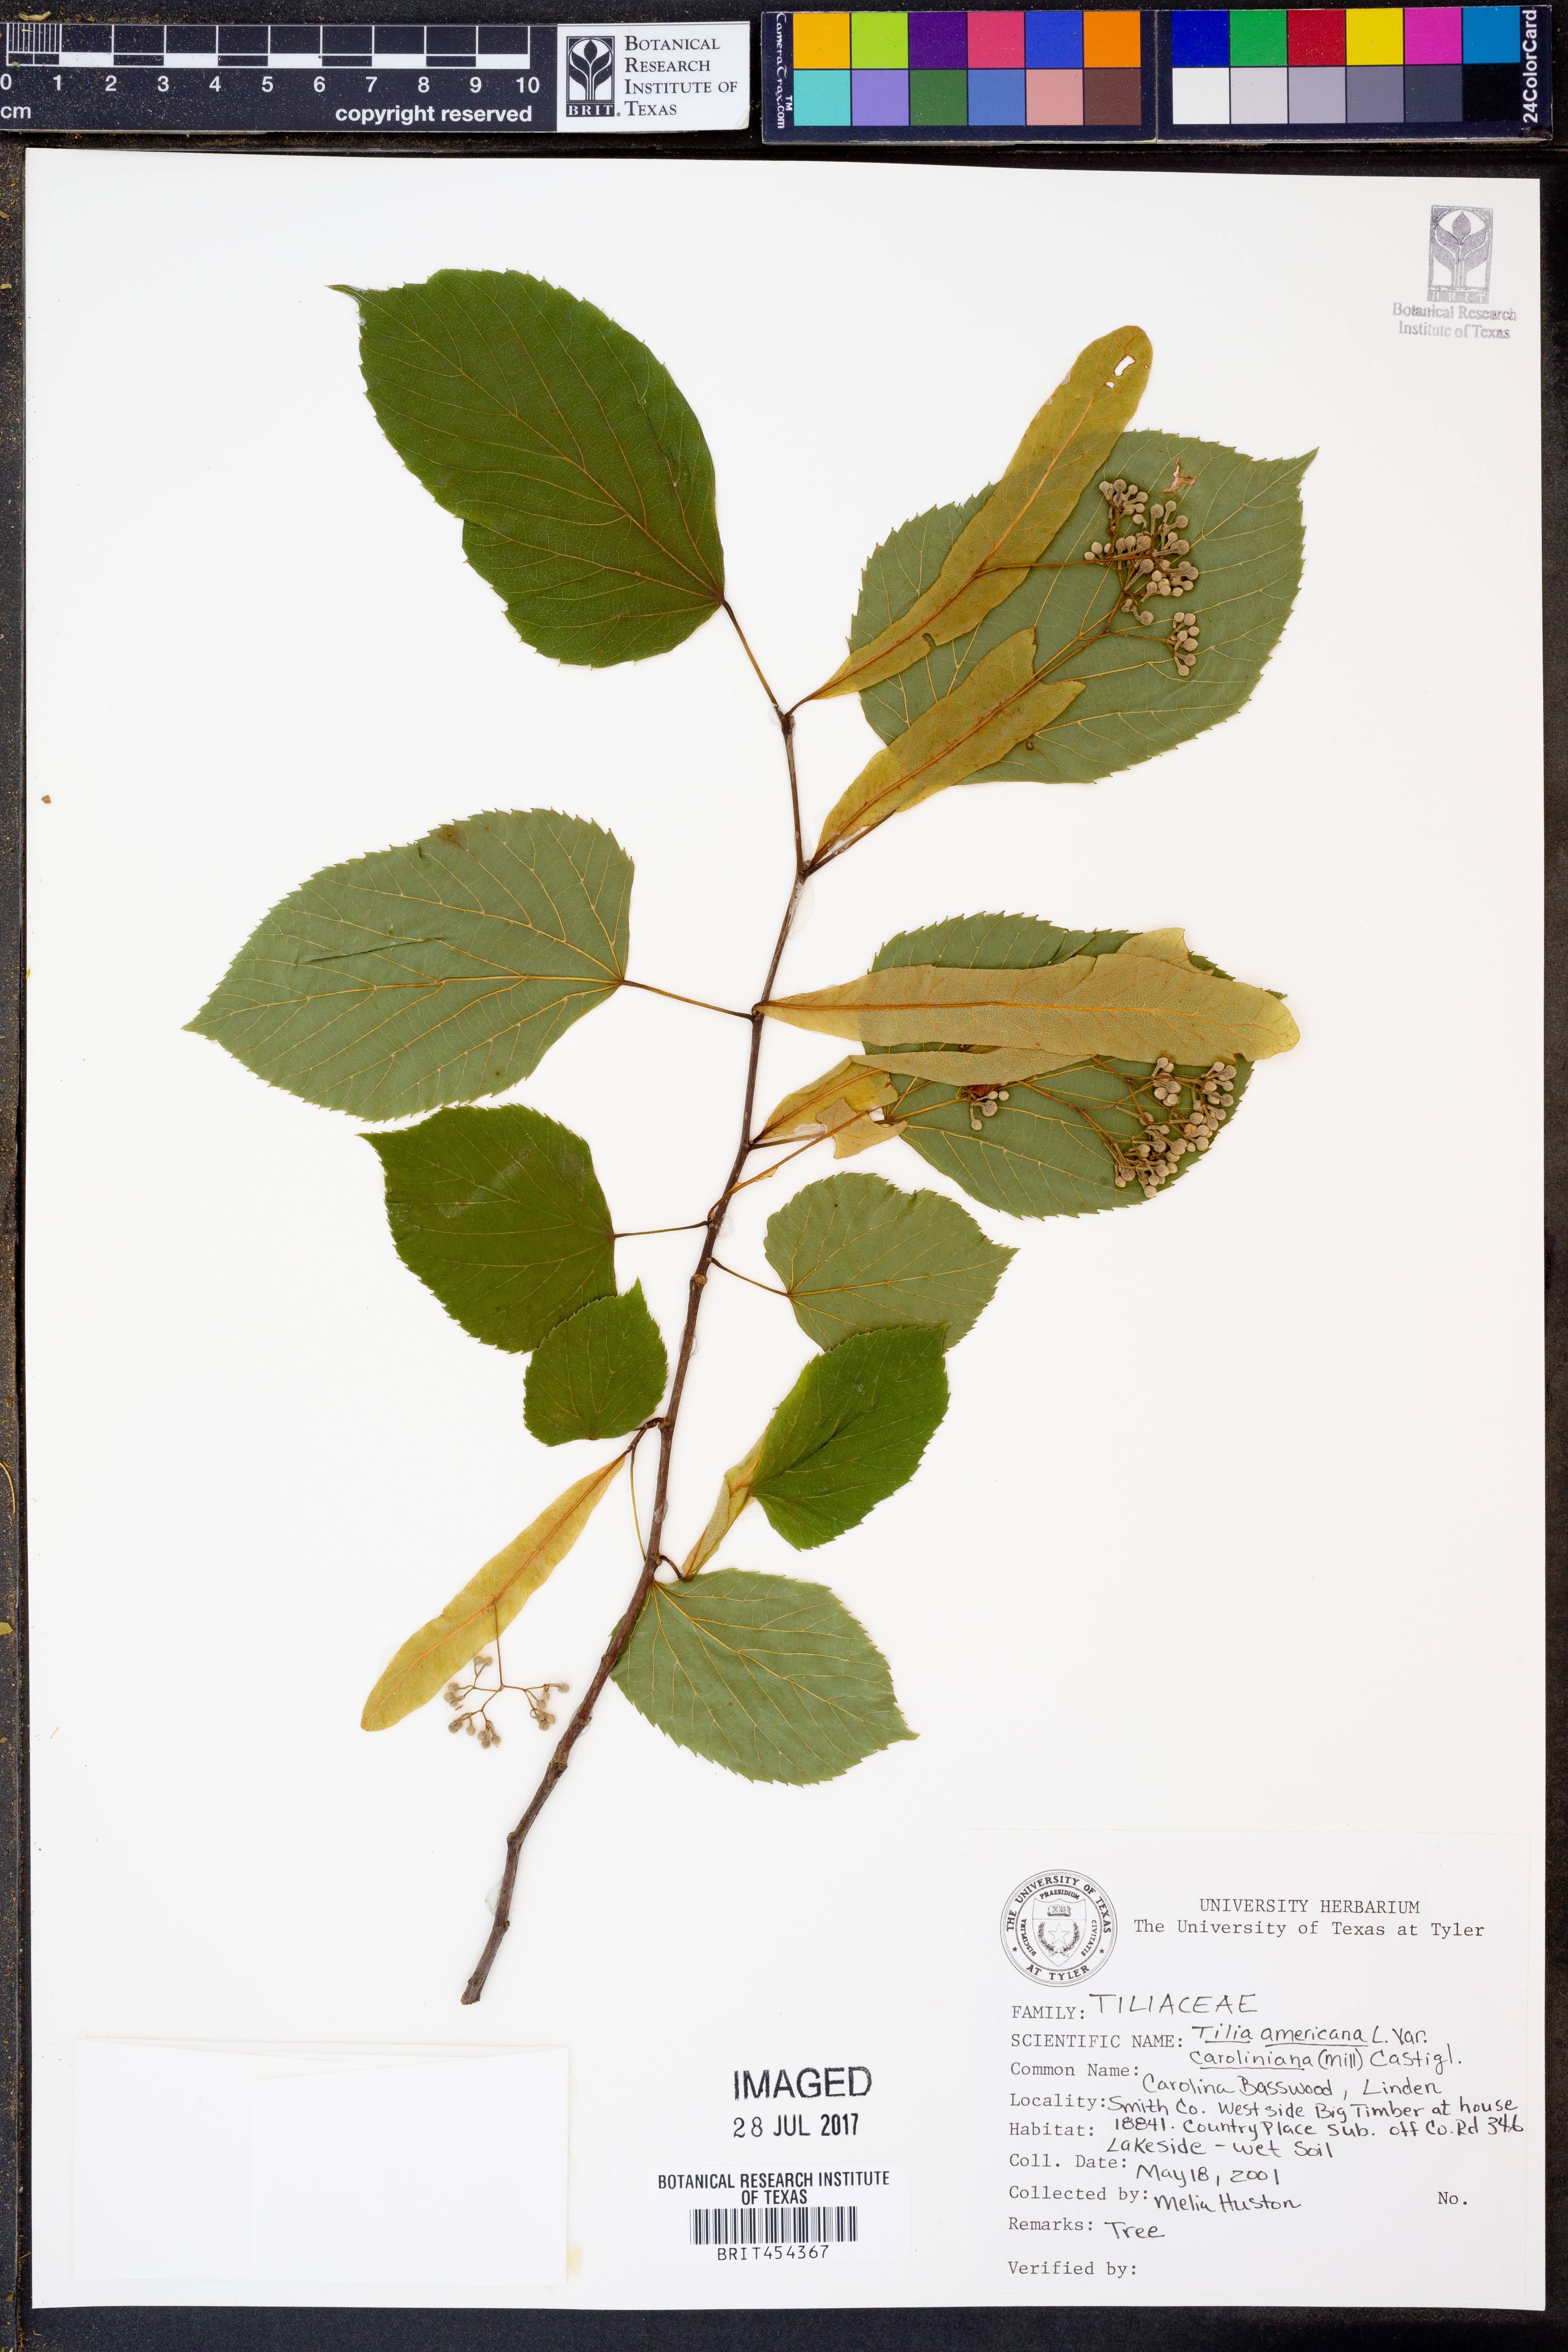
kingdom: Plantae
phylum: Tracheophyta
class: Magnoliopsida
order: Malvales
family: Malvaceae
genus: Tilia
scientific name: Tilia americana
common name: Basswood
